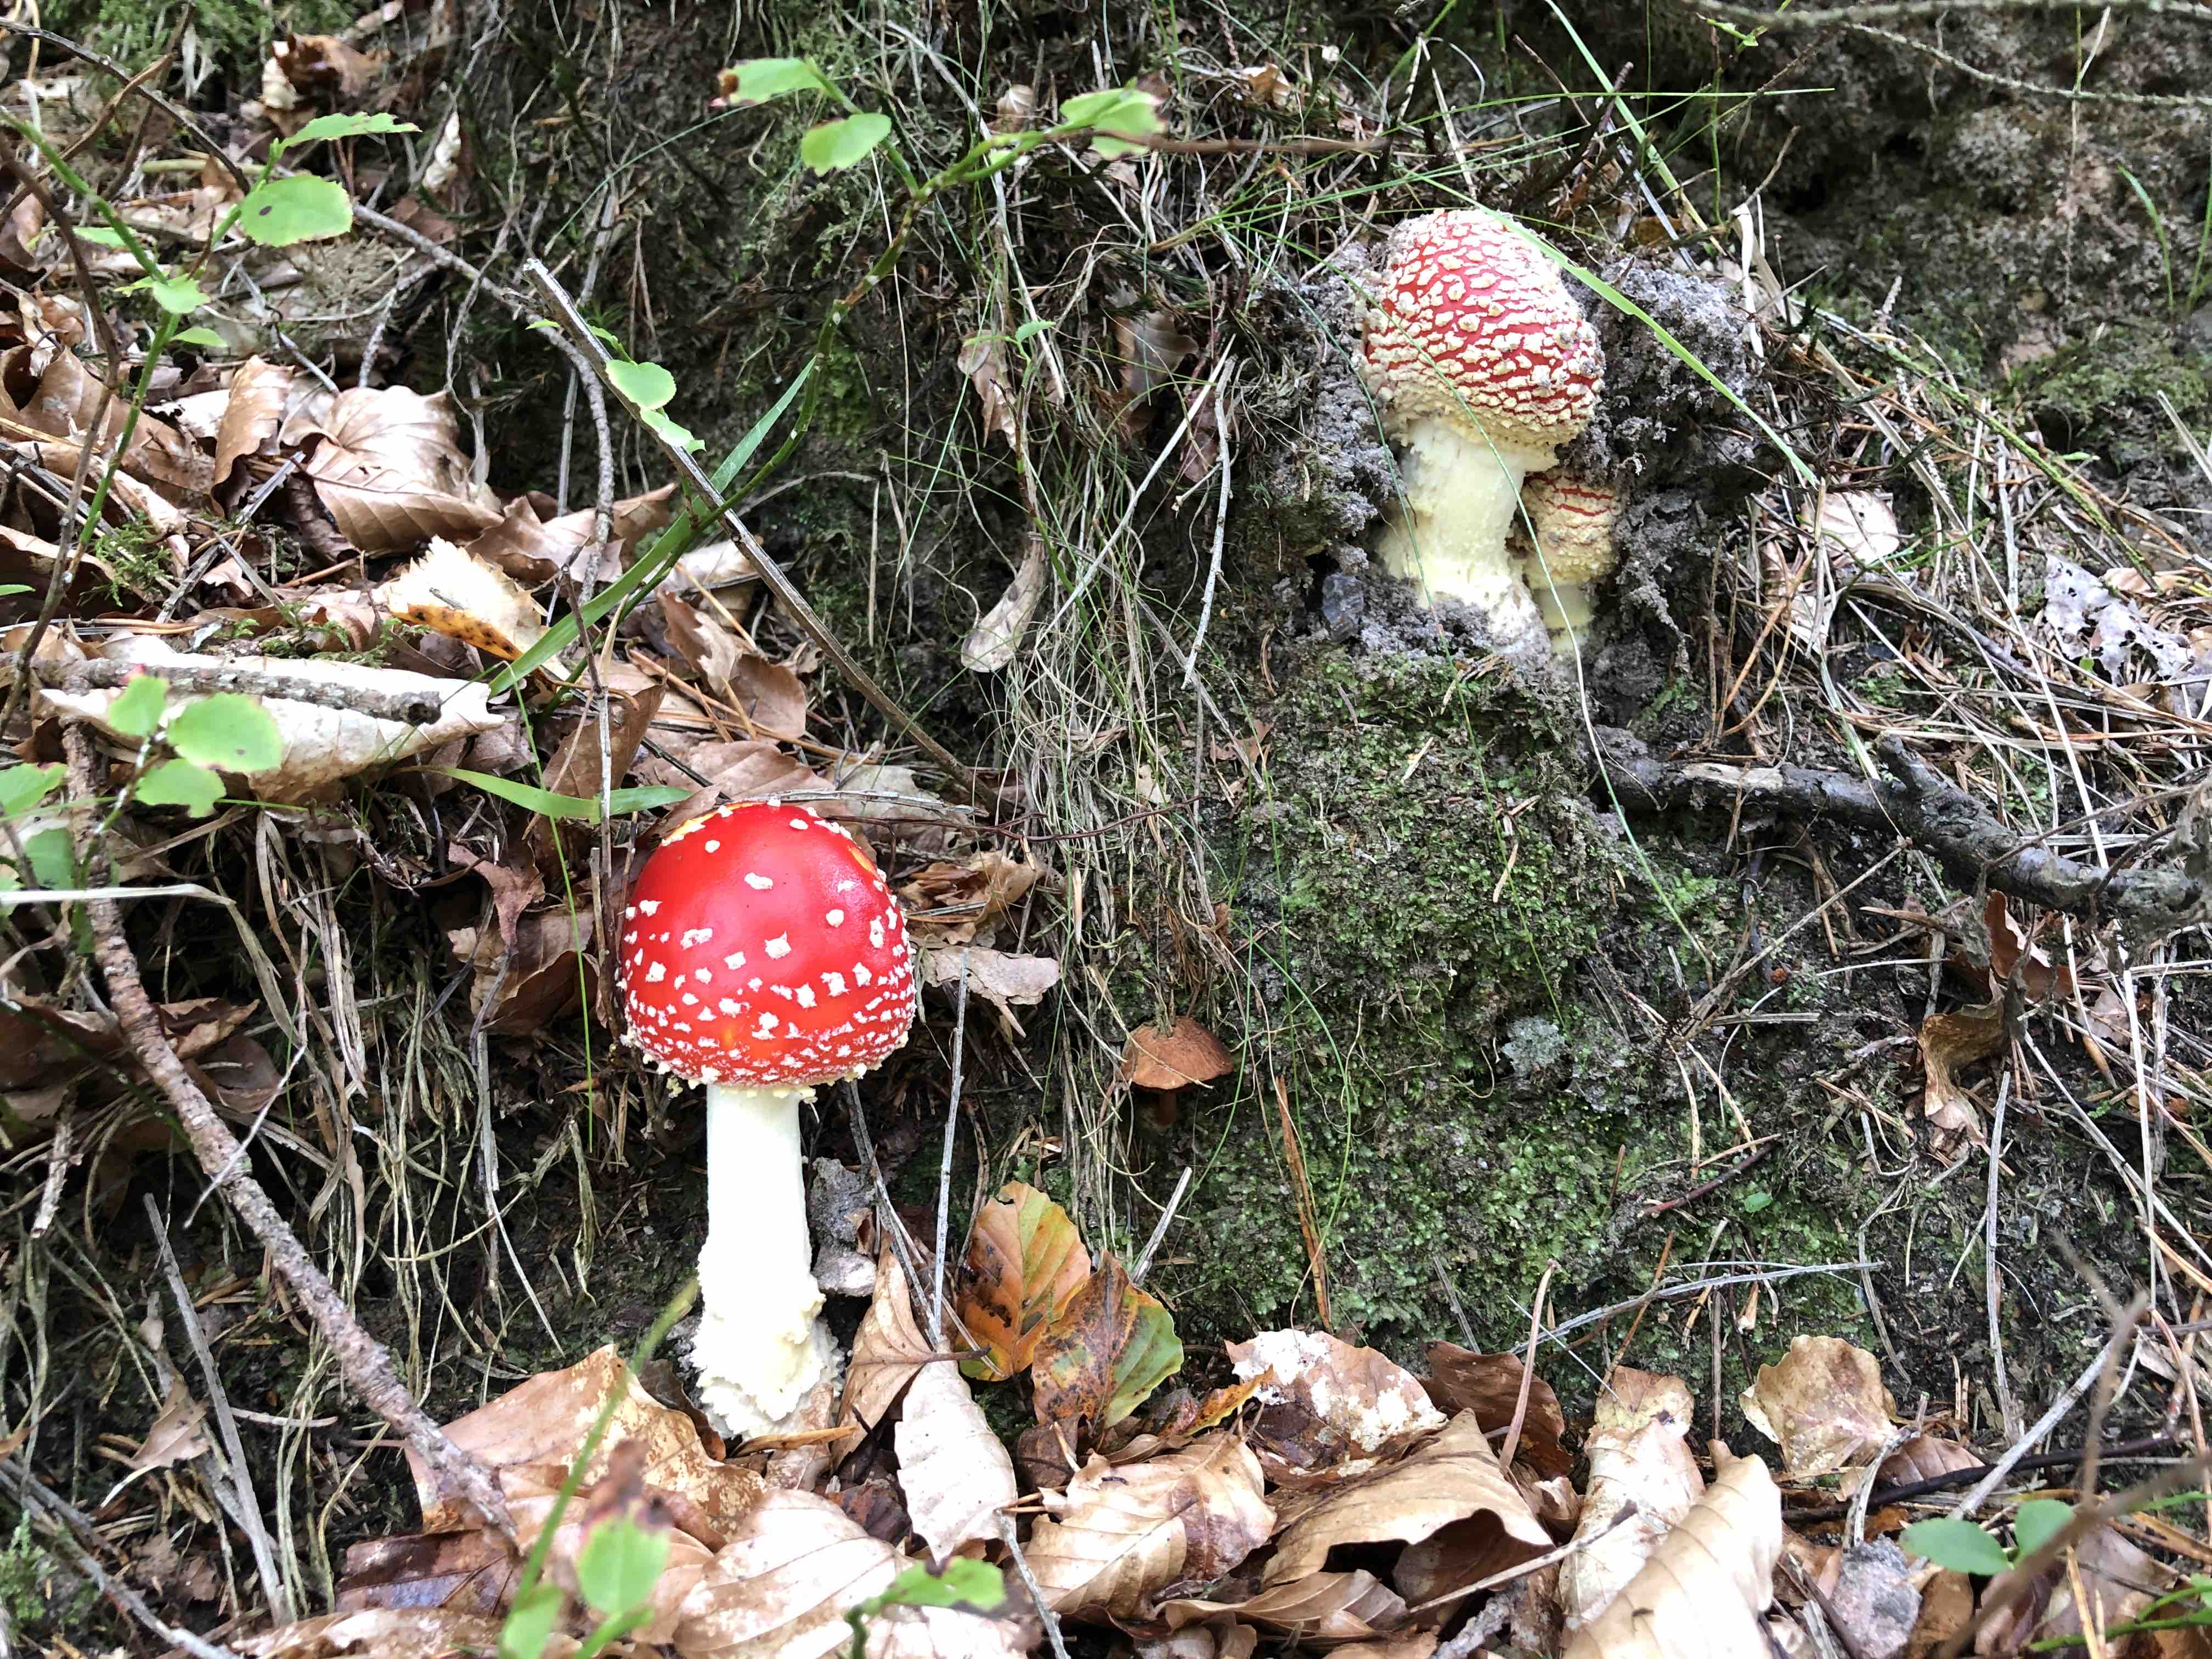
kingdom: Fungi
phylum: Basidiomycota
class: Agaricomycetes
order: Agaricales
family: Amanitaceae
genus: Amanita
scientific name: Amanita muscaria
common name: rød fluesvamp
